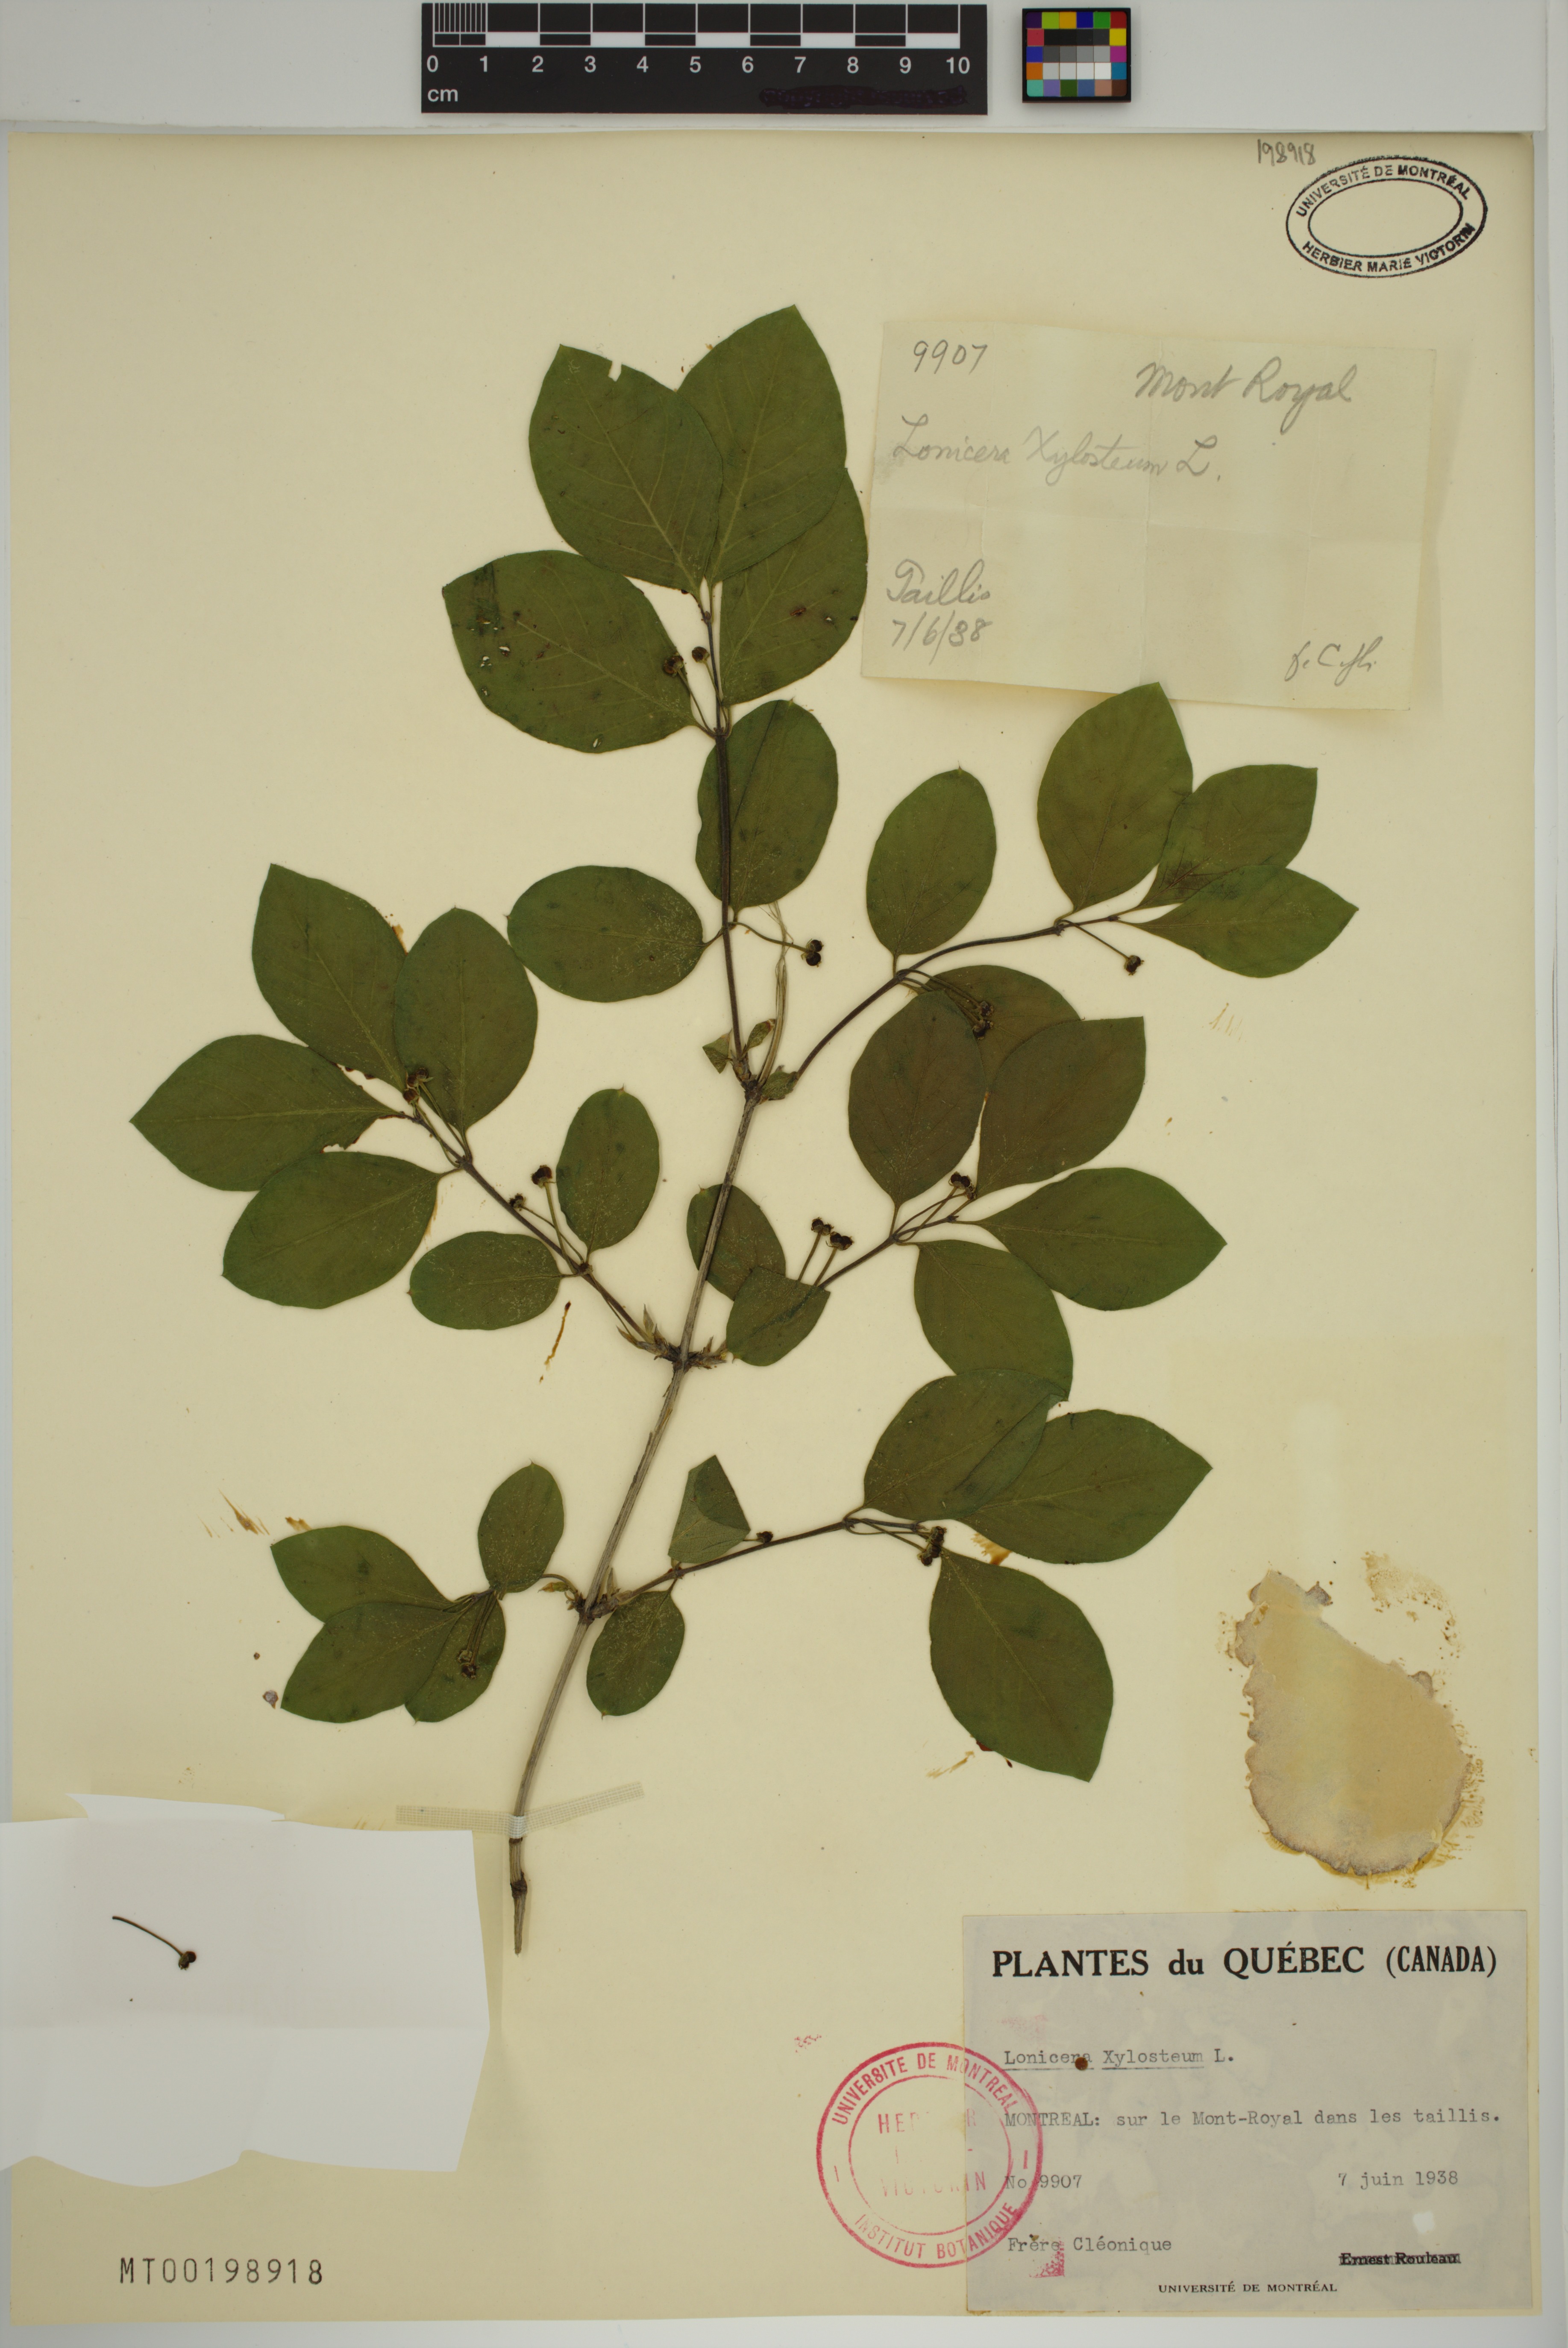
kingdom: Plantae
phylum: Tracheophyta
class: Magnoliopsida
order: Dipsacales
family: Caprifoliaceae
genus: Lonicera
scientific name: Lonicera xylosteum
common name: Fly honeysuckle
